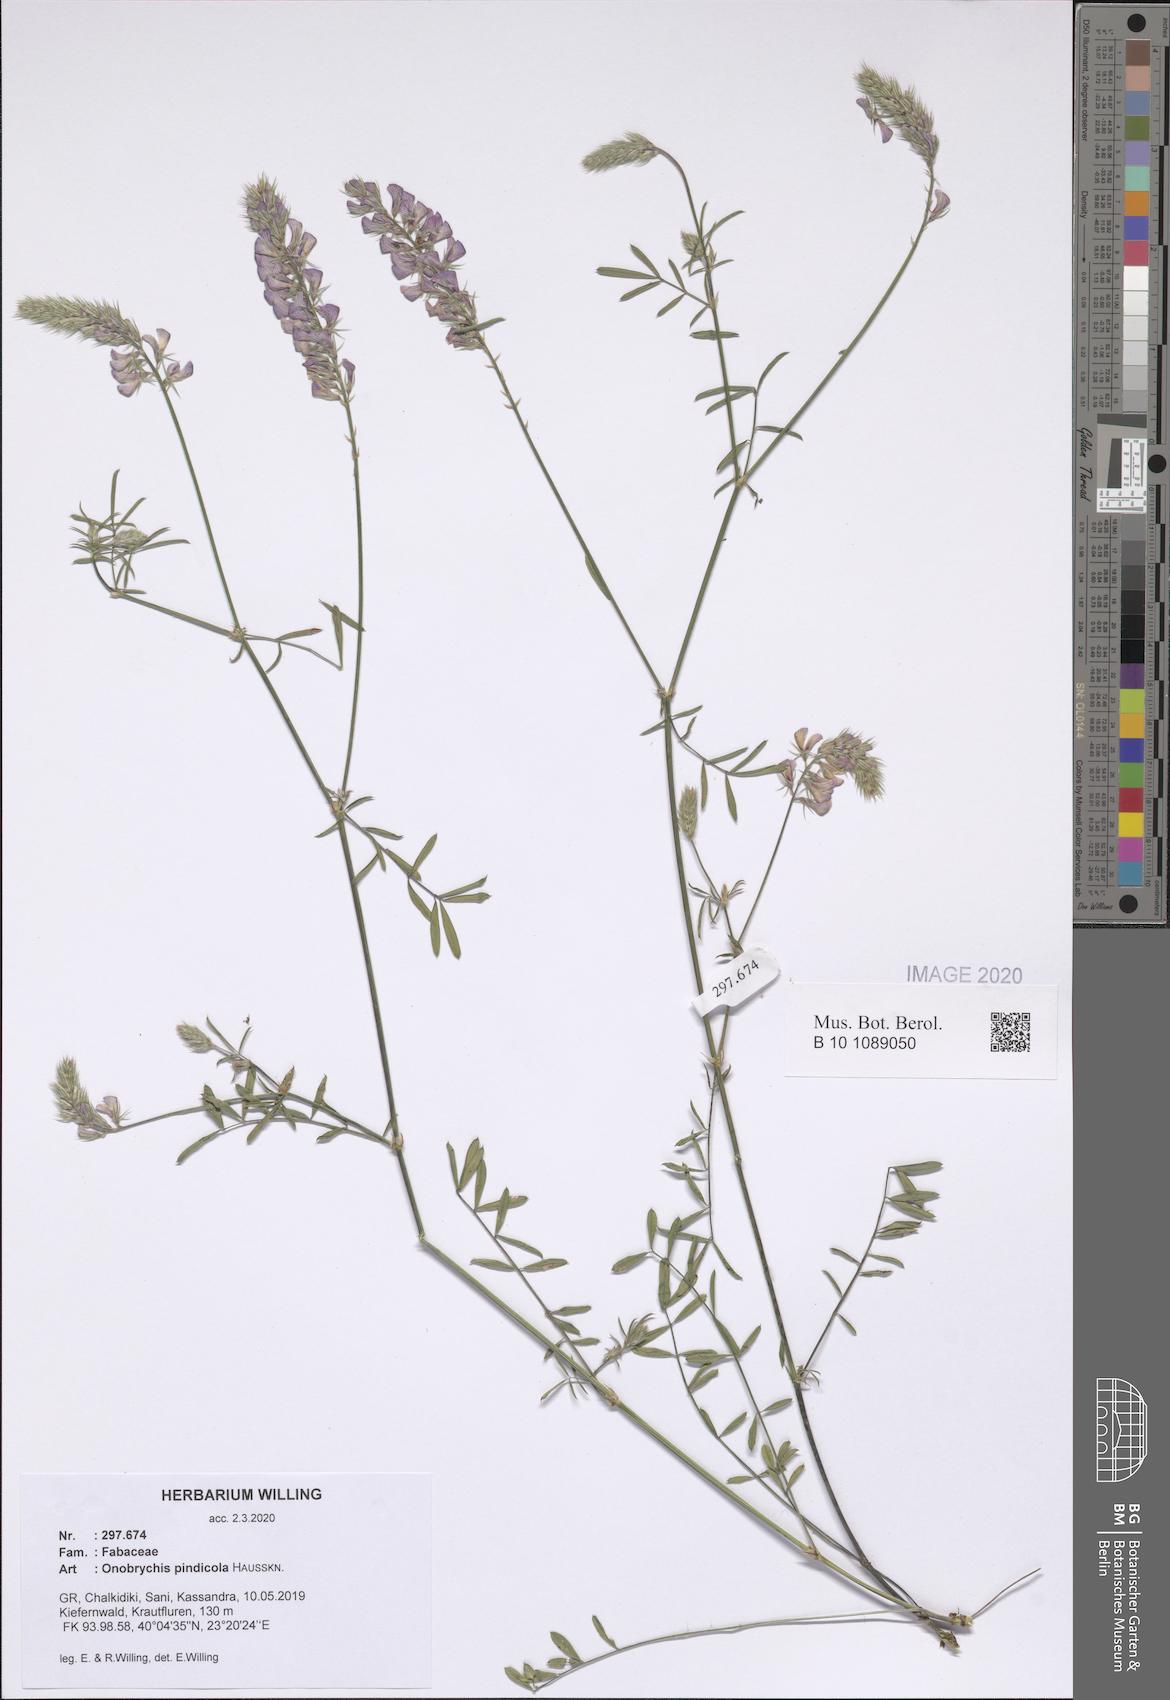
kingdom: Plantae
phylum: Tracheophyta
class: Magnoliopsida
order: Fabales
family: Fabaceae
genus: Onobrychis
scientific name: Onobrychis pindicola
